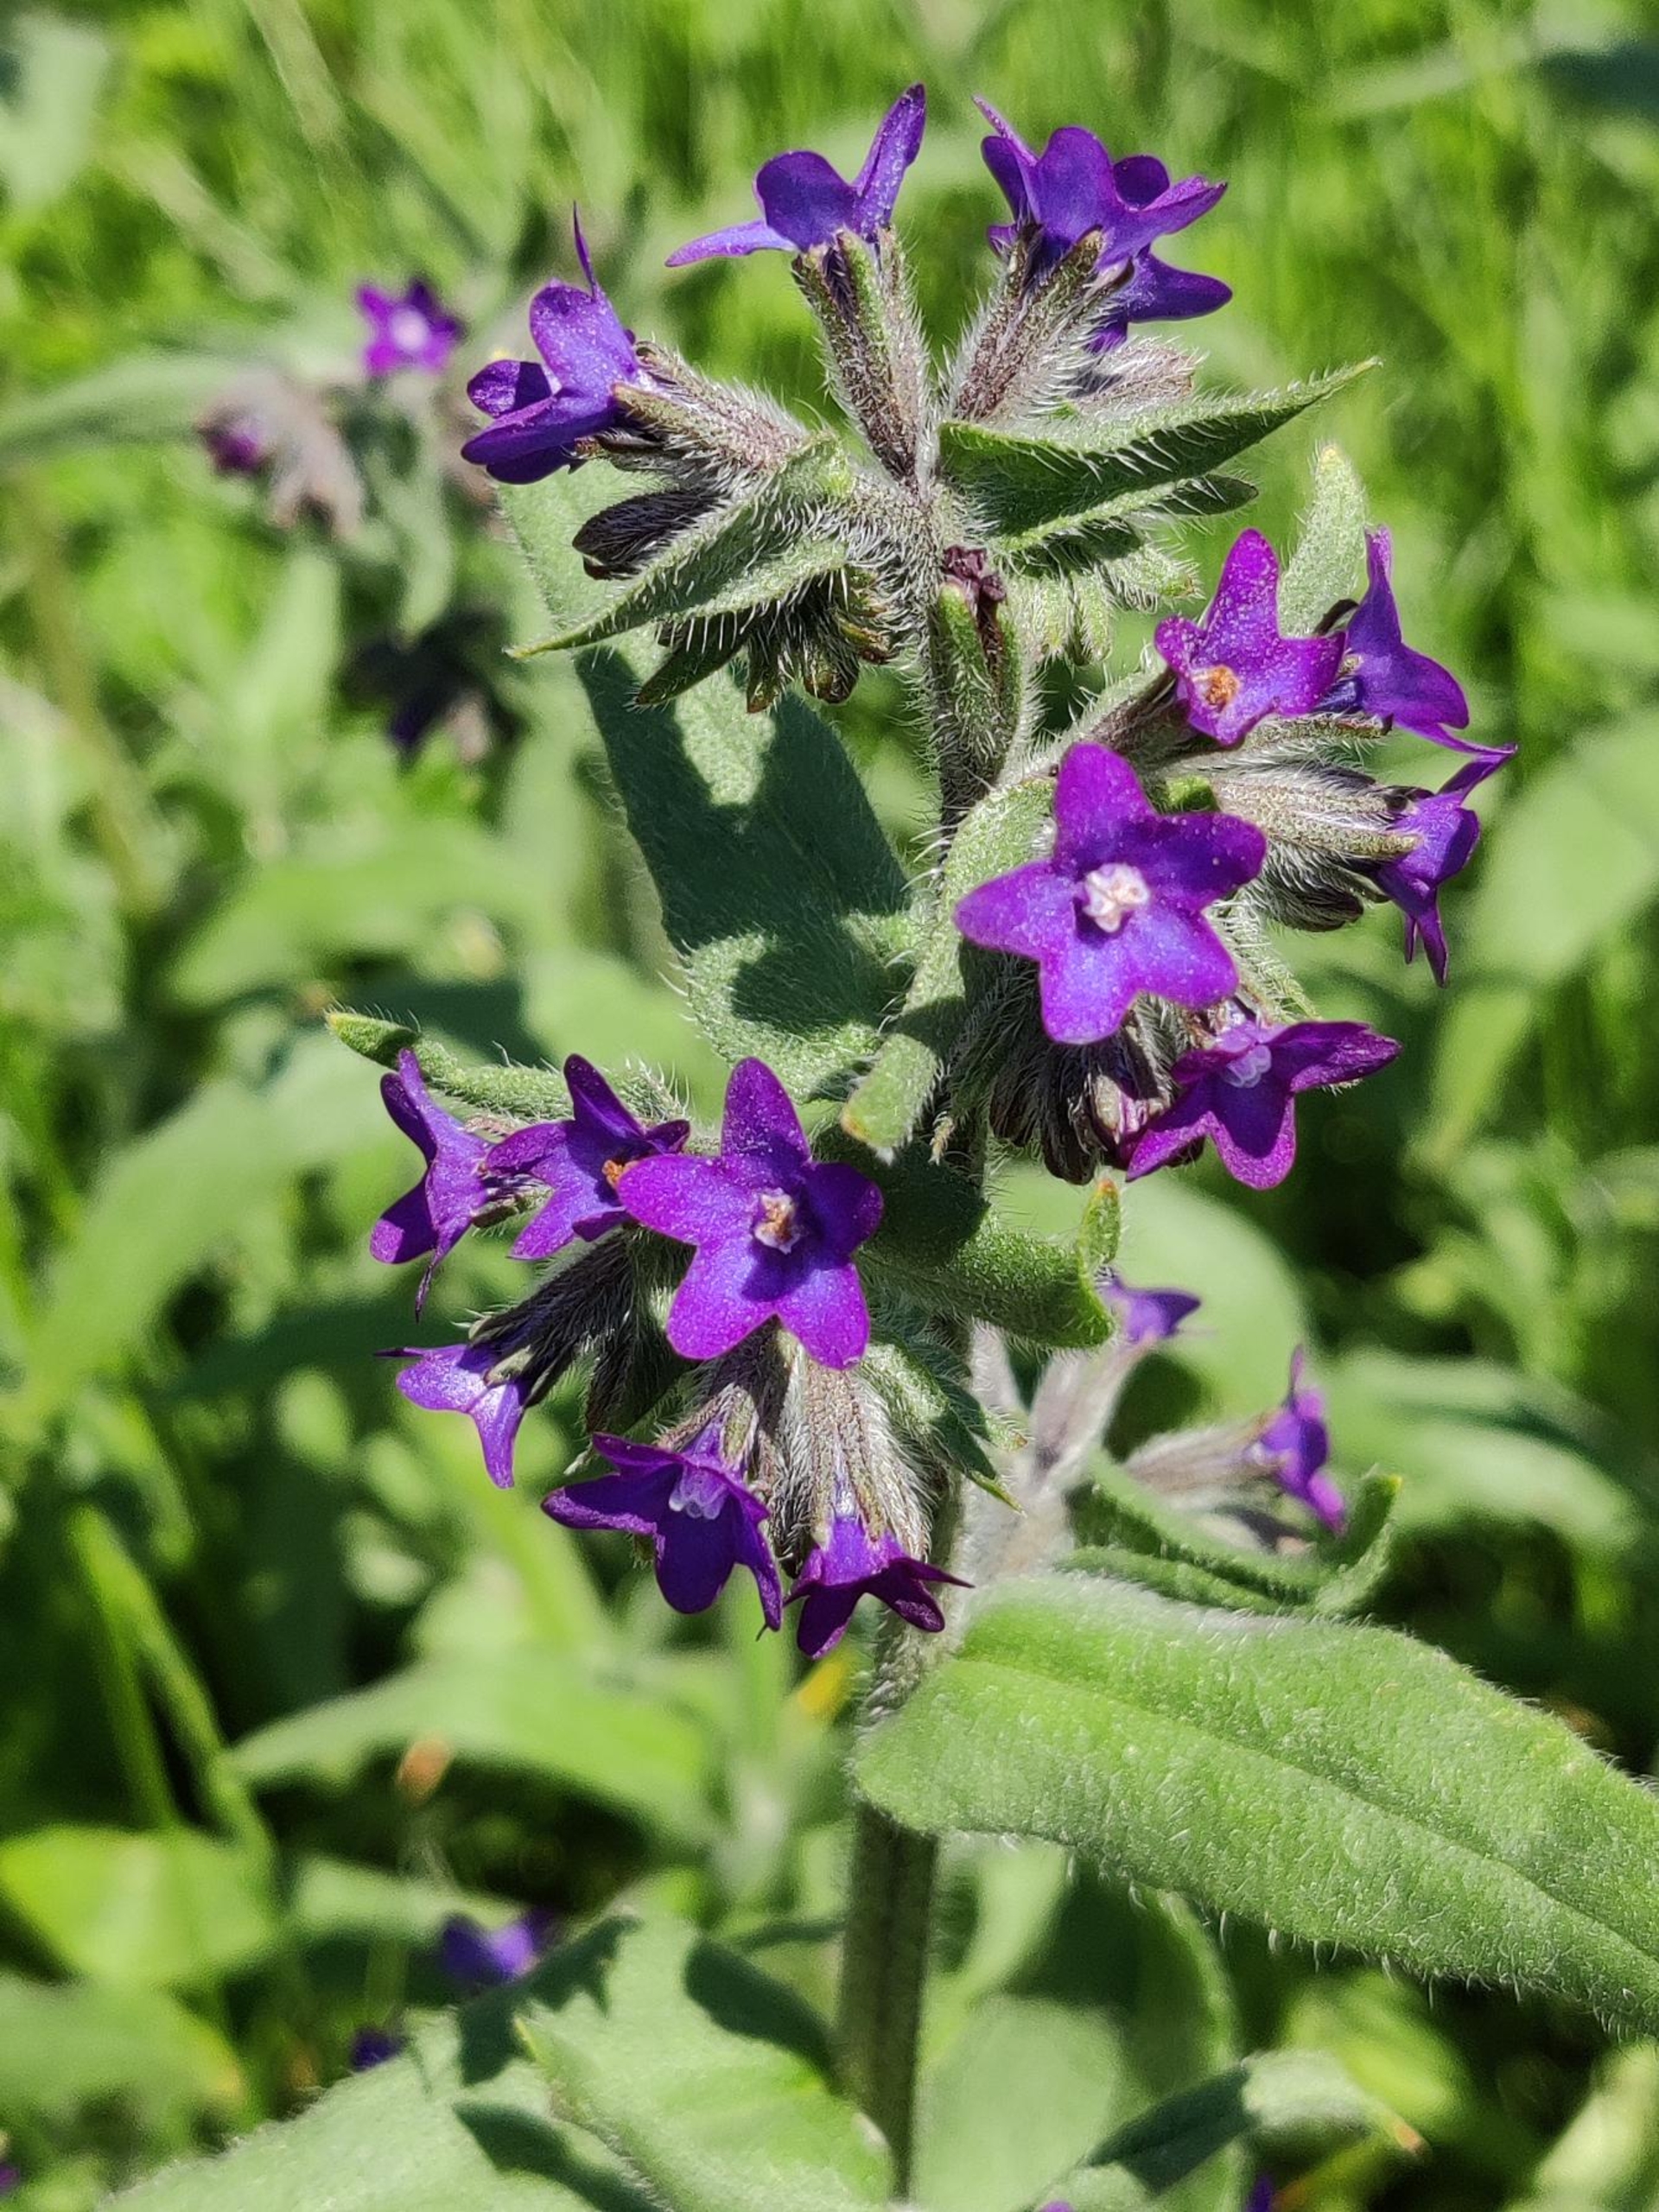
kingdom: Plantae
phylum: Tracheophyta
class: Magnoliopsida
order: Boraginales
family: Boraginaceae
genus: Anchusa
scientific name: Anchusa officinalis
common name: Læge-oksetunge
